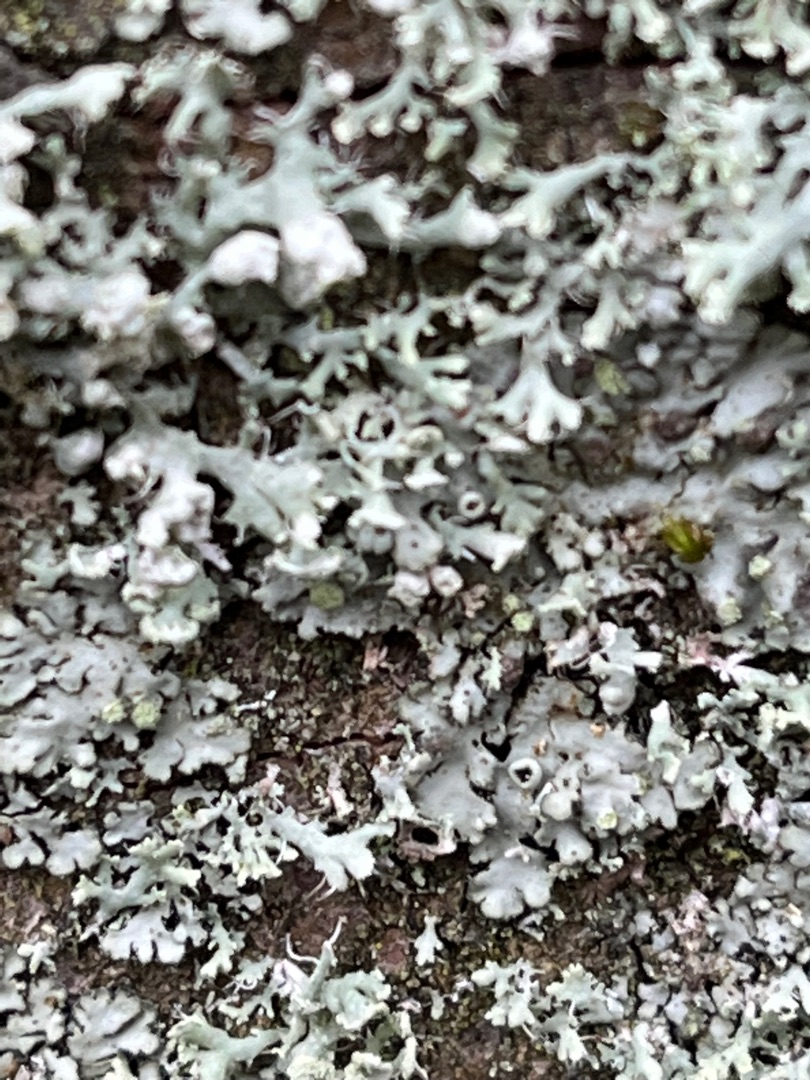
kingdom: Fungi
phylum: Ascomycota
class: Lecanoromycetes
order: Caliciales
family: Physciaceae
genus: Physcia
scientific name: Physcia adscendens
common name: Hætte-rosetlav
